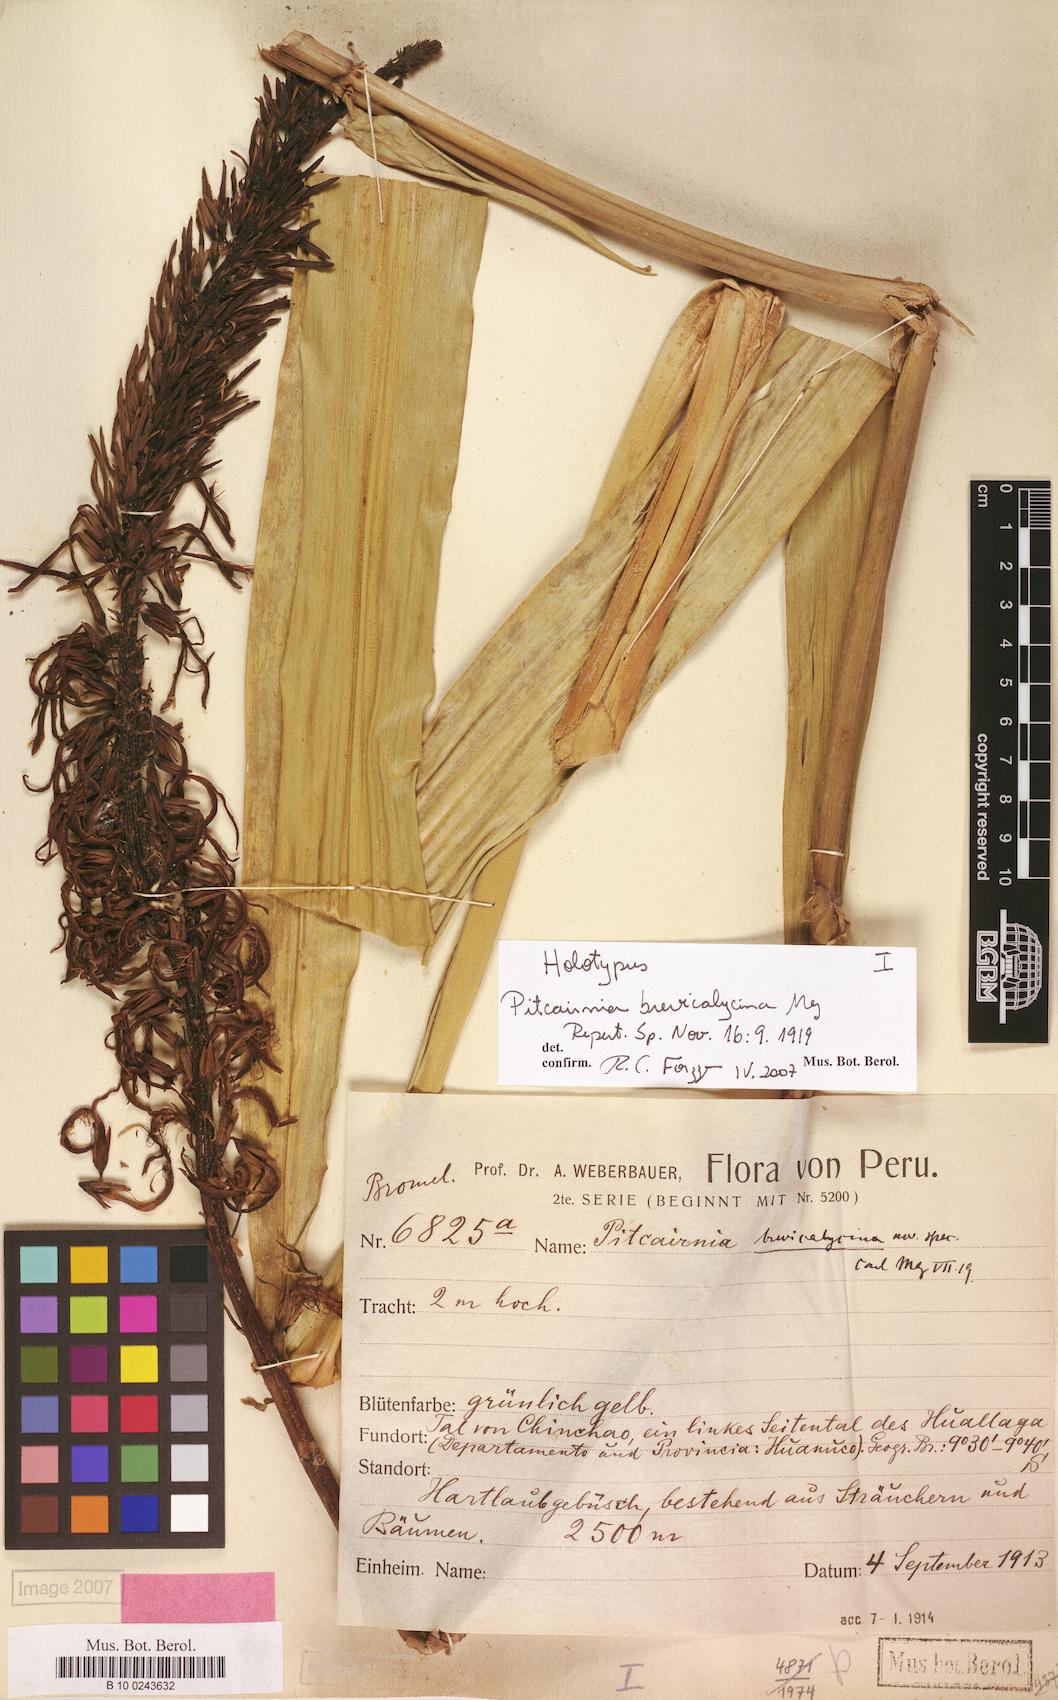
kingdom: Plantae
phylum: Tracheophyta
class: Liliopsida
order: Poales
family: Bromeliaceae
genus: Pitcairnia
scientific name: Pitcairnia brevicalycina
